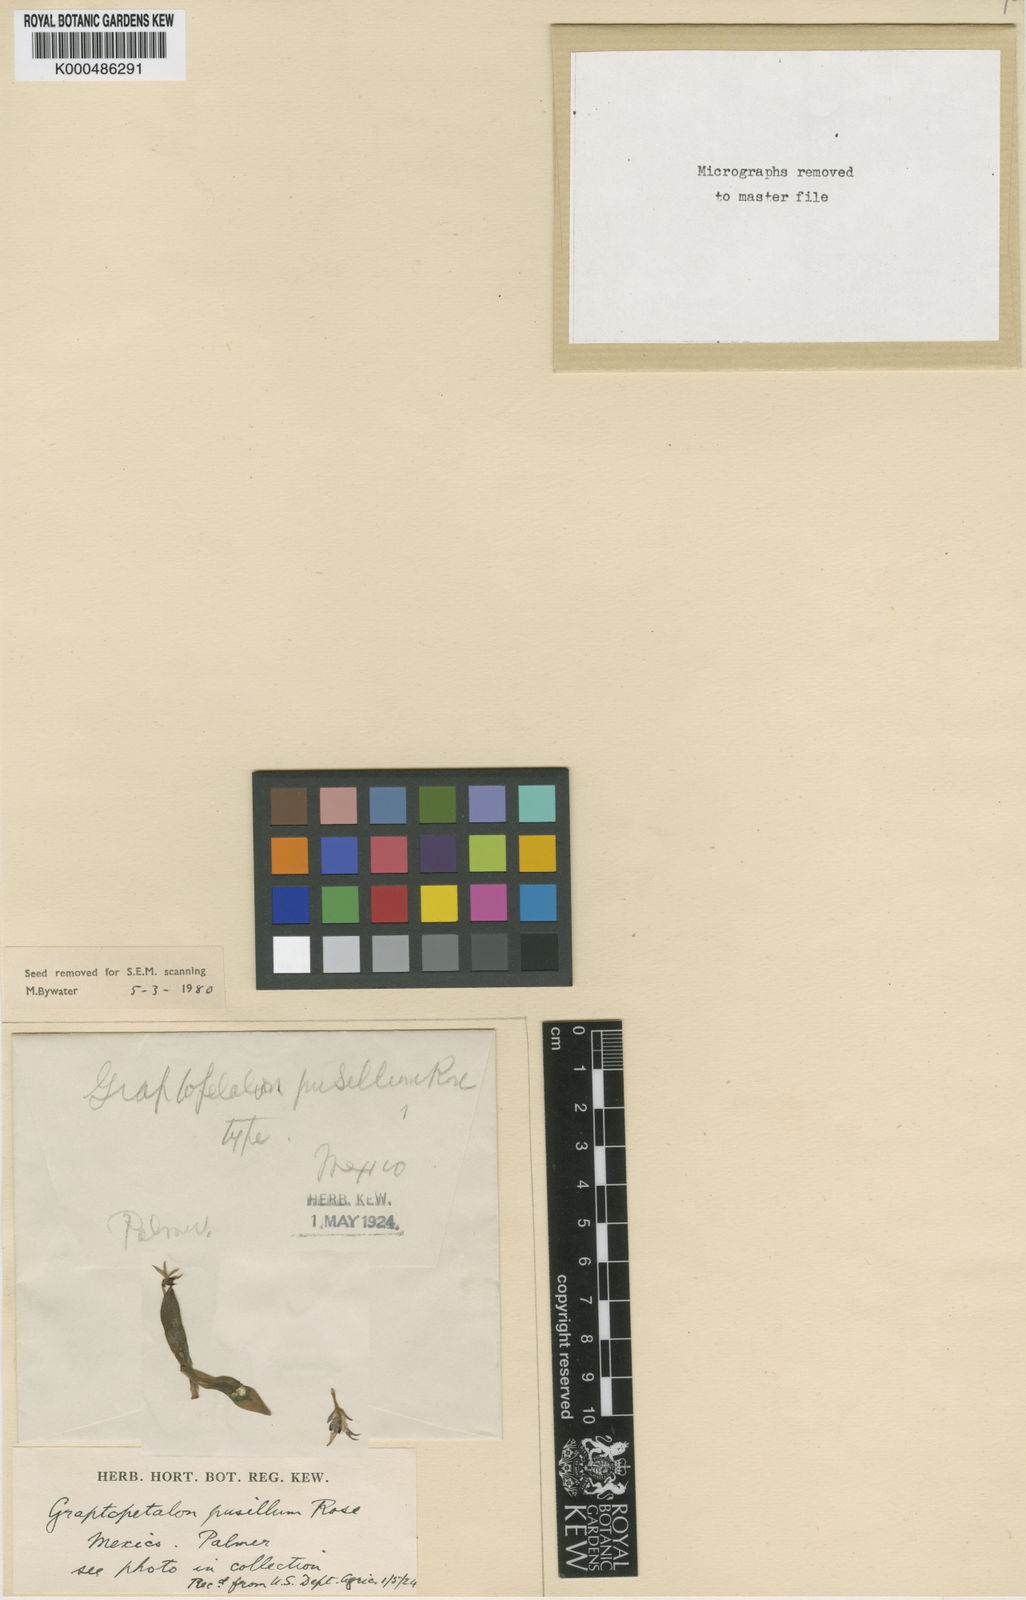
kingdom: Plantae
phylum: Tracheophyta
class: Magnoliopsida
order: Saxifragales
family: Crassulaceae
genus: Graptopetalum
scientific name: Graptopetalum pusillum
